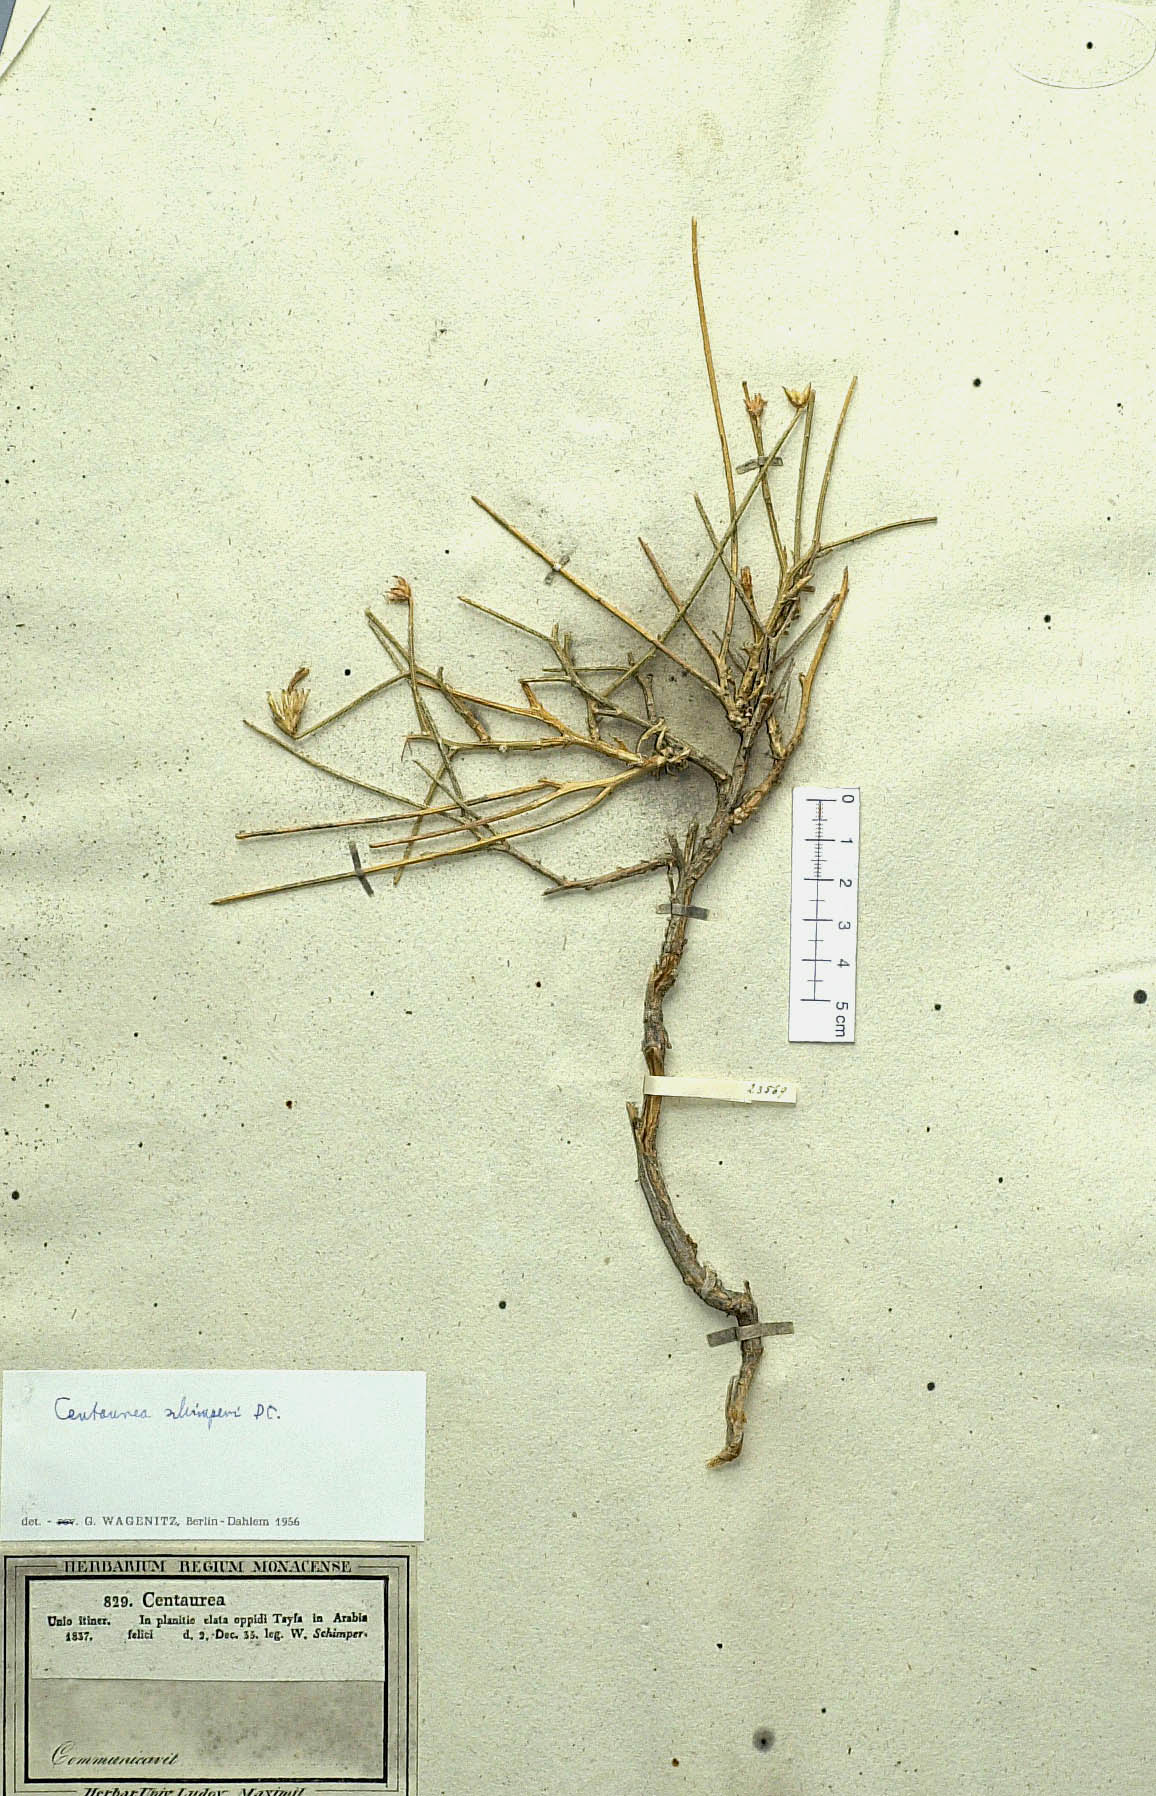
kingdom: Plantae
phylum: Tracheophyta
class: Magnoliopsida
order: Asterales
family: Asteraceae
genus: Centaurea
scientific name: Centaurea schimperi
